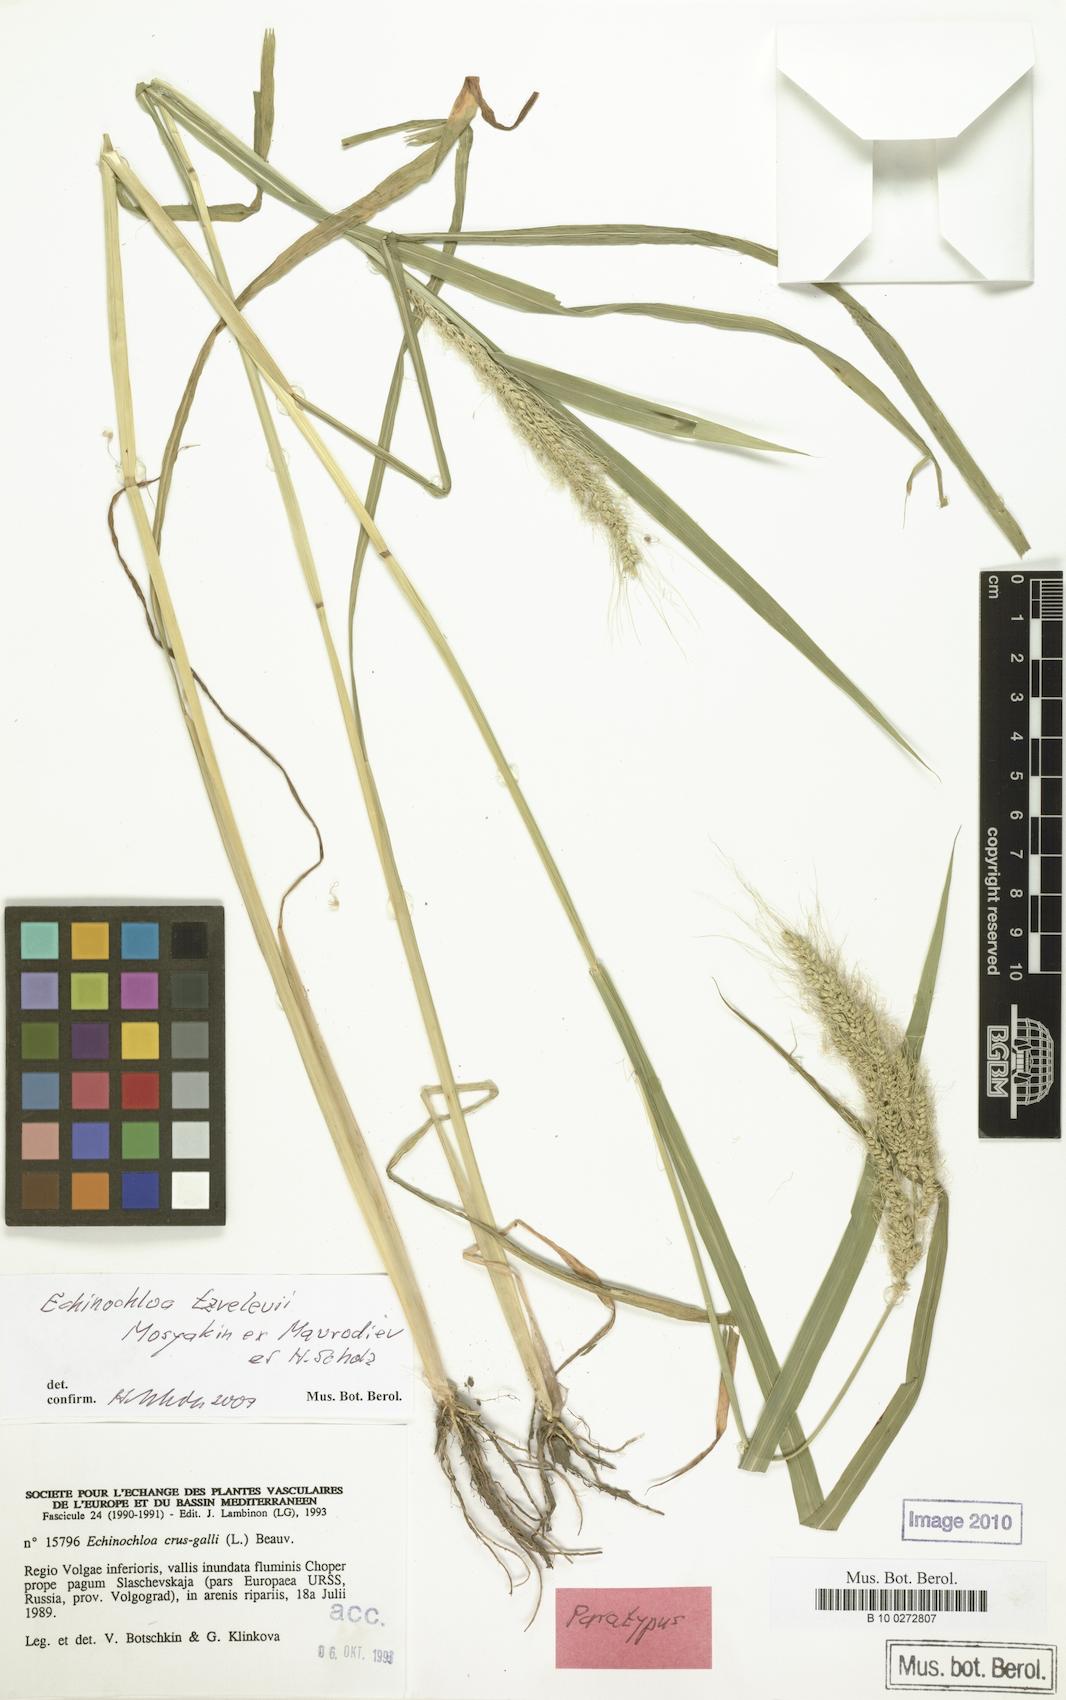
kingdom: Plantae
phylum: Tracheophyta
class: Liliopsida
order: Poales
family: Poaceae
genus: Echinochloa
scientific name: Echinochloa crus-galli
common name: Cockspur
